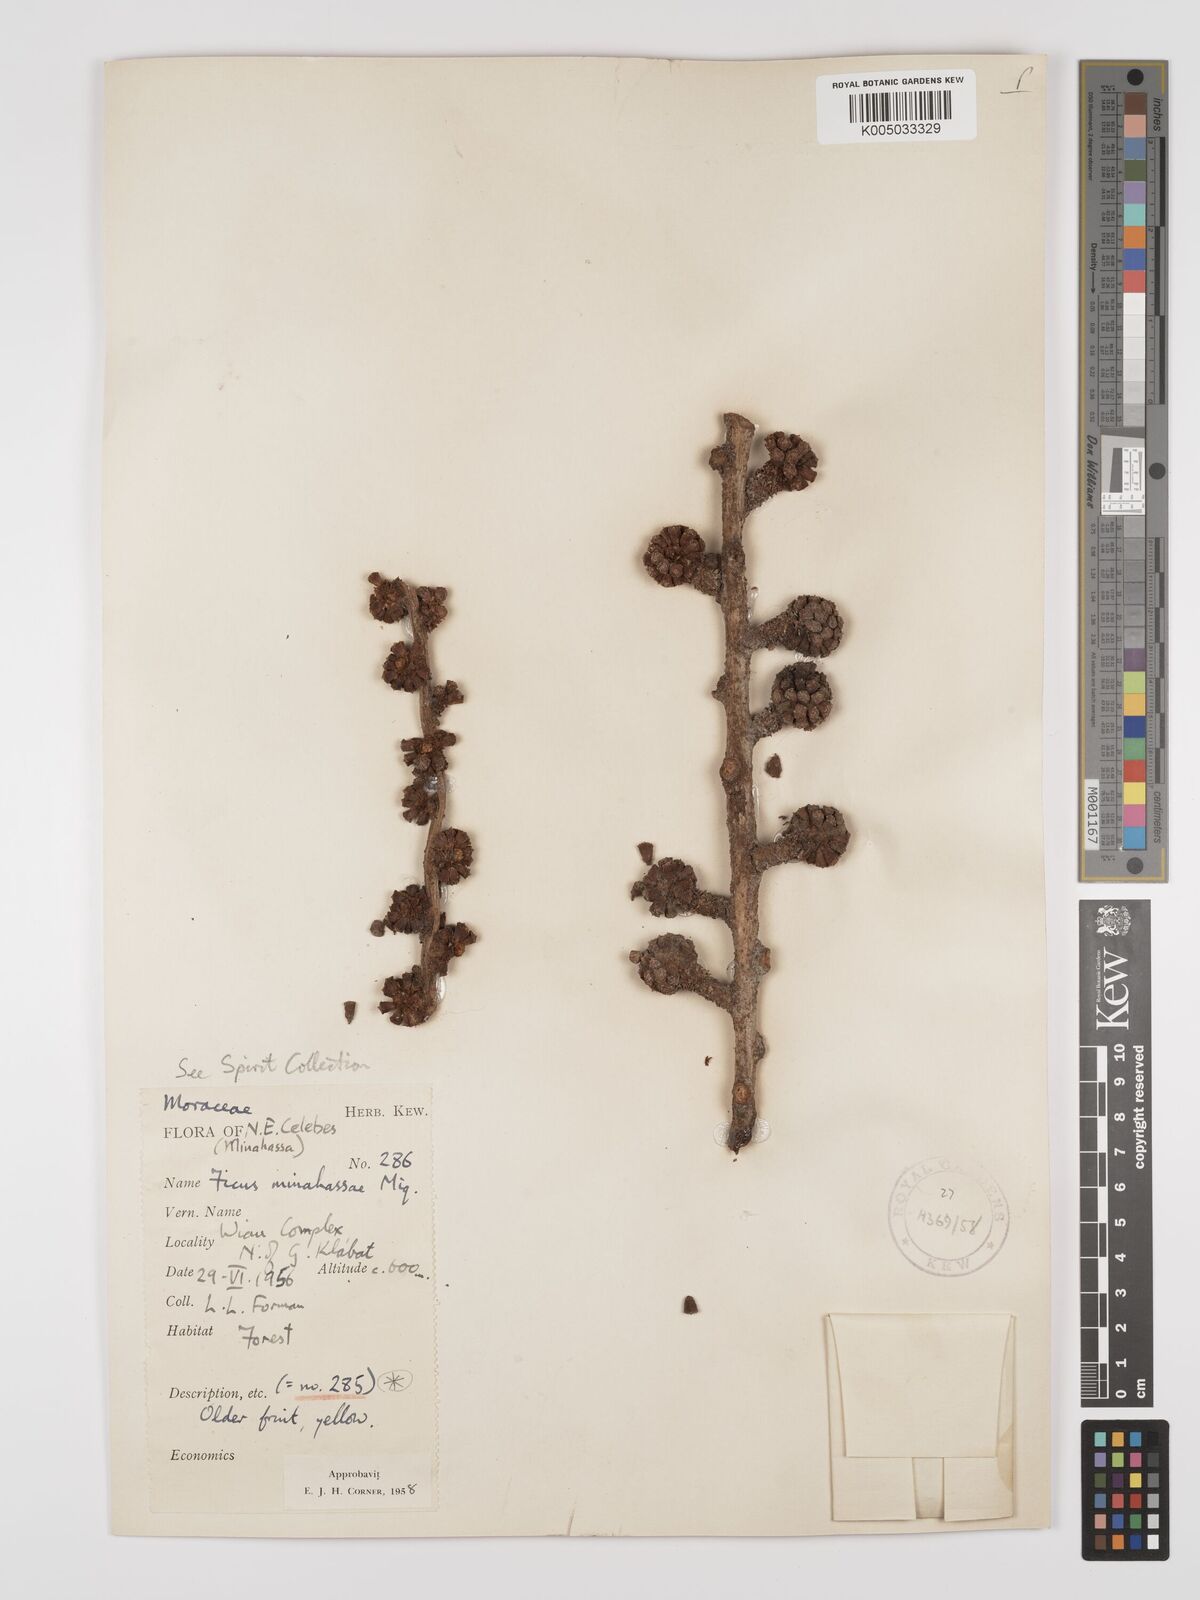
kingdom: Plantae
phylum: Tracheophyta
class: Magnoliopsida
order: Rosales
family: Moraceae
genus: Ficus
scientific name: Ficus minahassae
